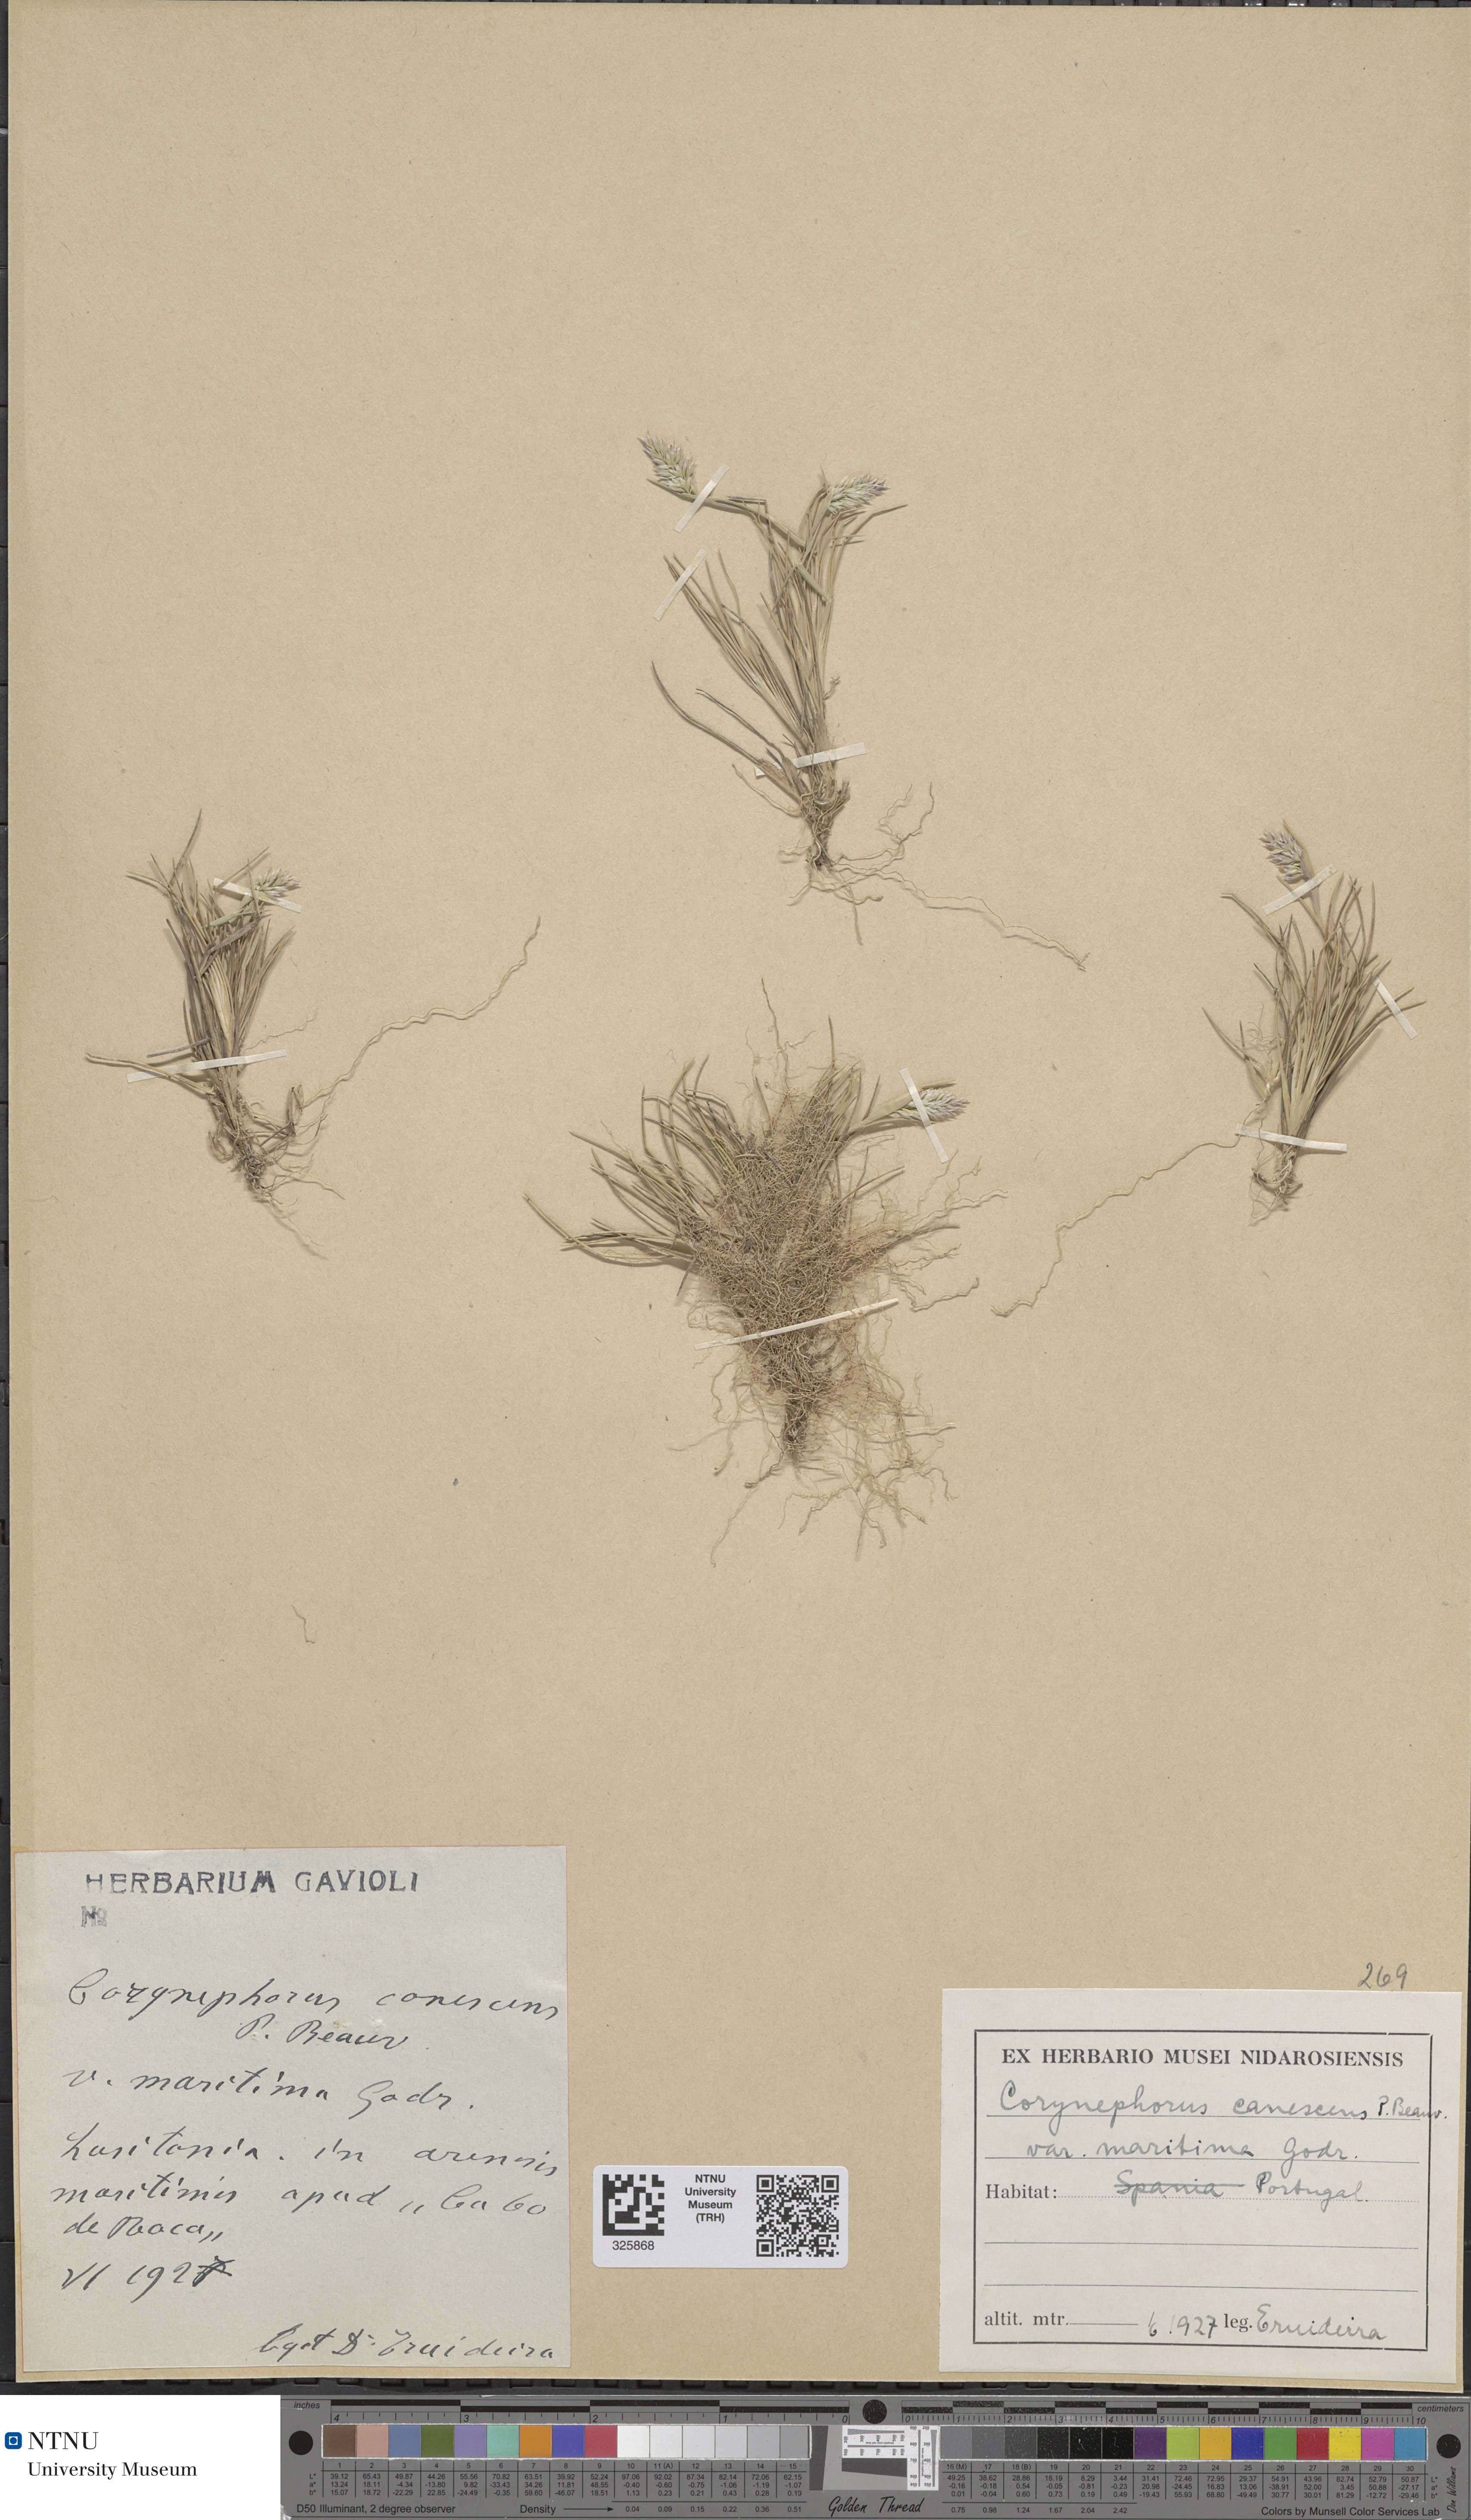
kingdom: Plantae
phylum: Tracheophyta
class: Liliopsida
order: Poales
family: Poaceae
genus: Corynephorus
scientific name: Corynephorus canescens
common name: Grey hair-grass
